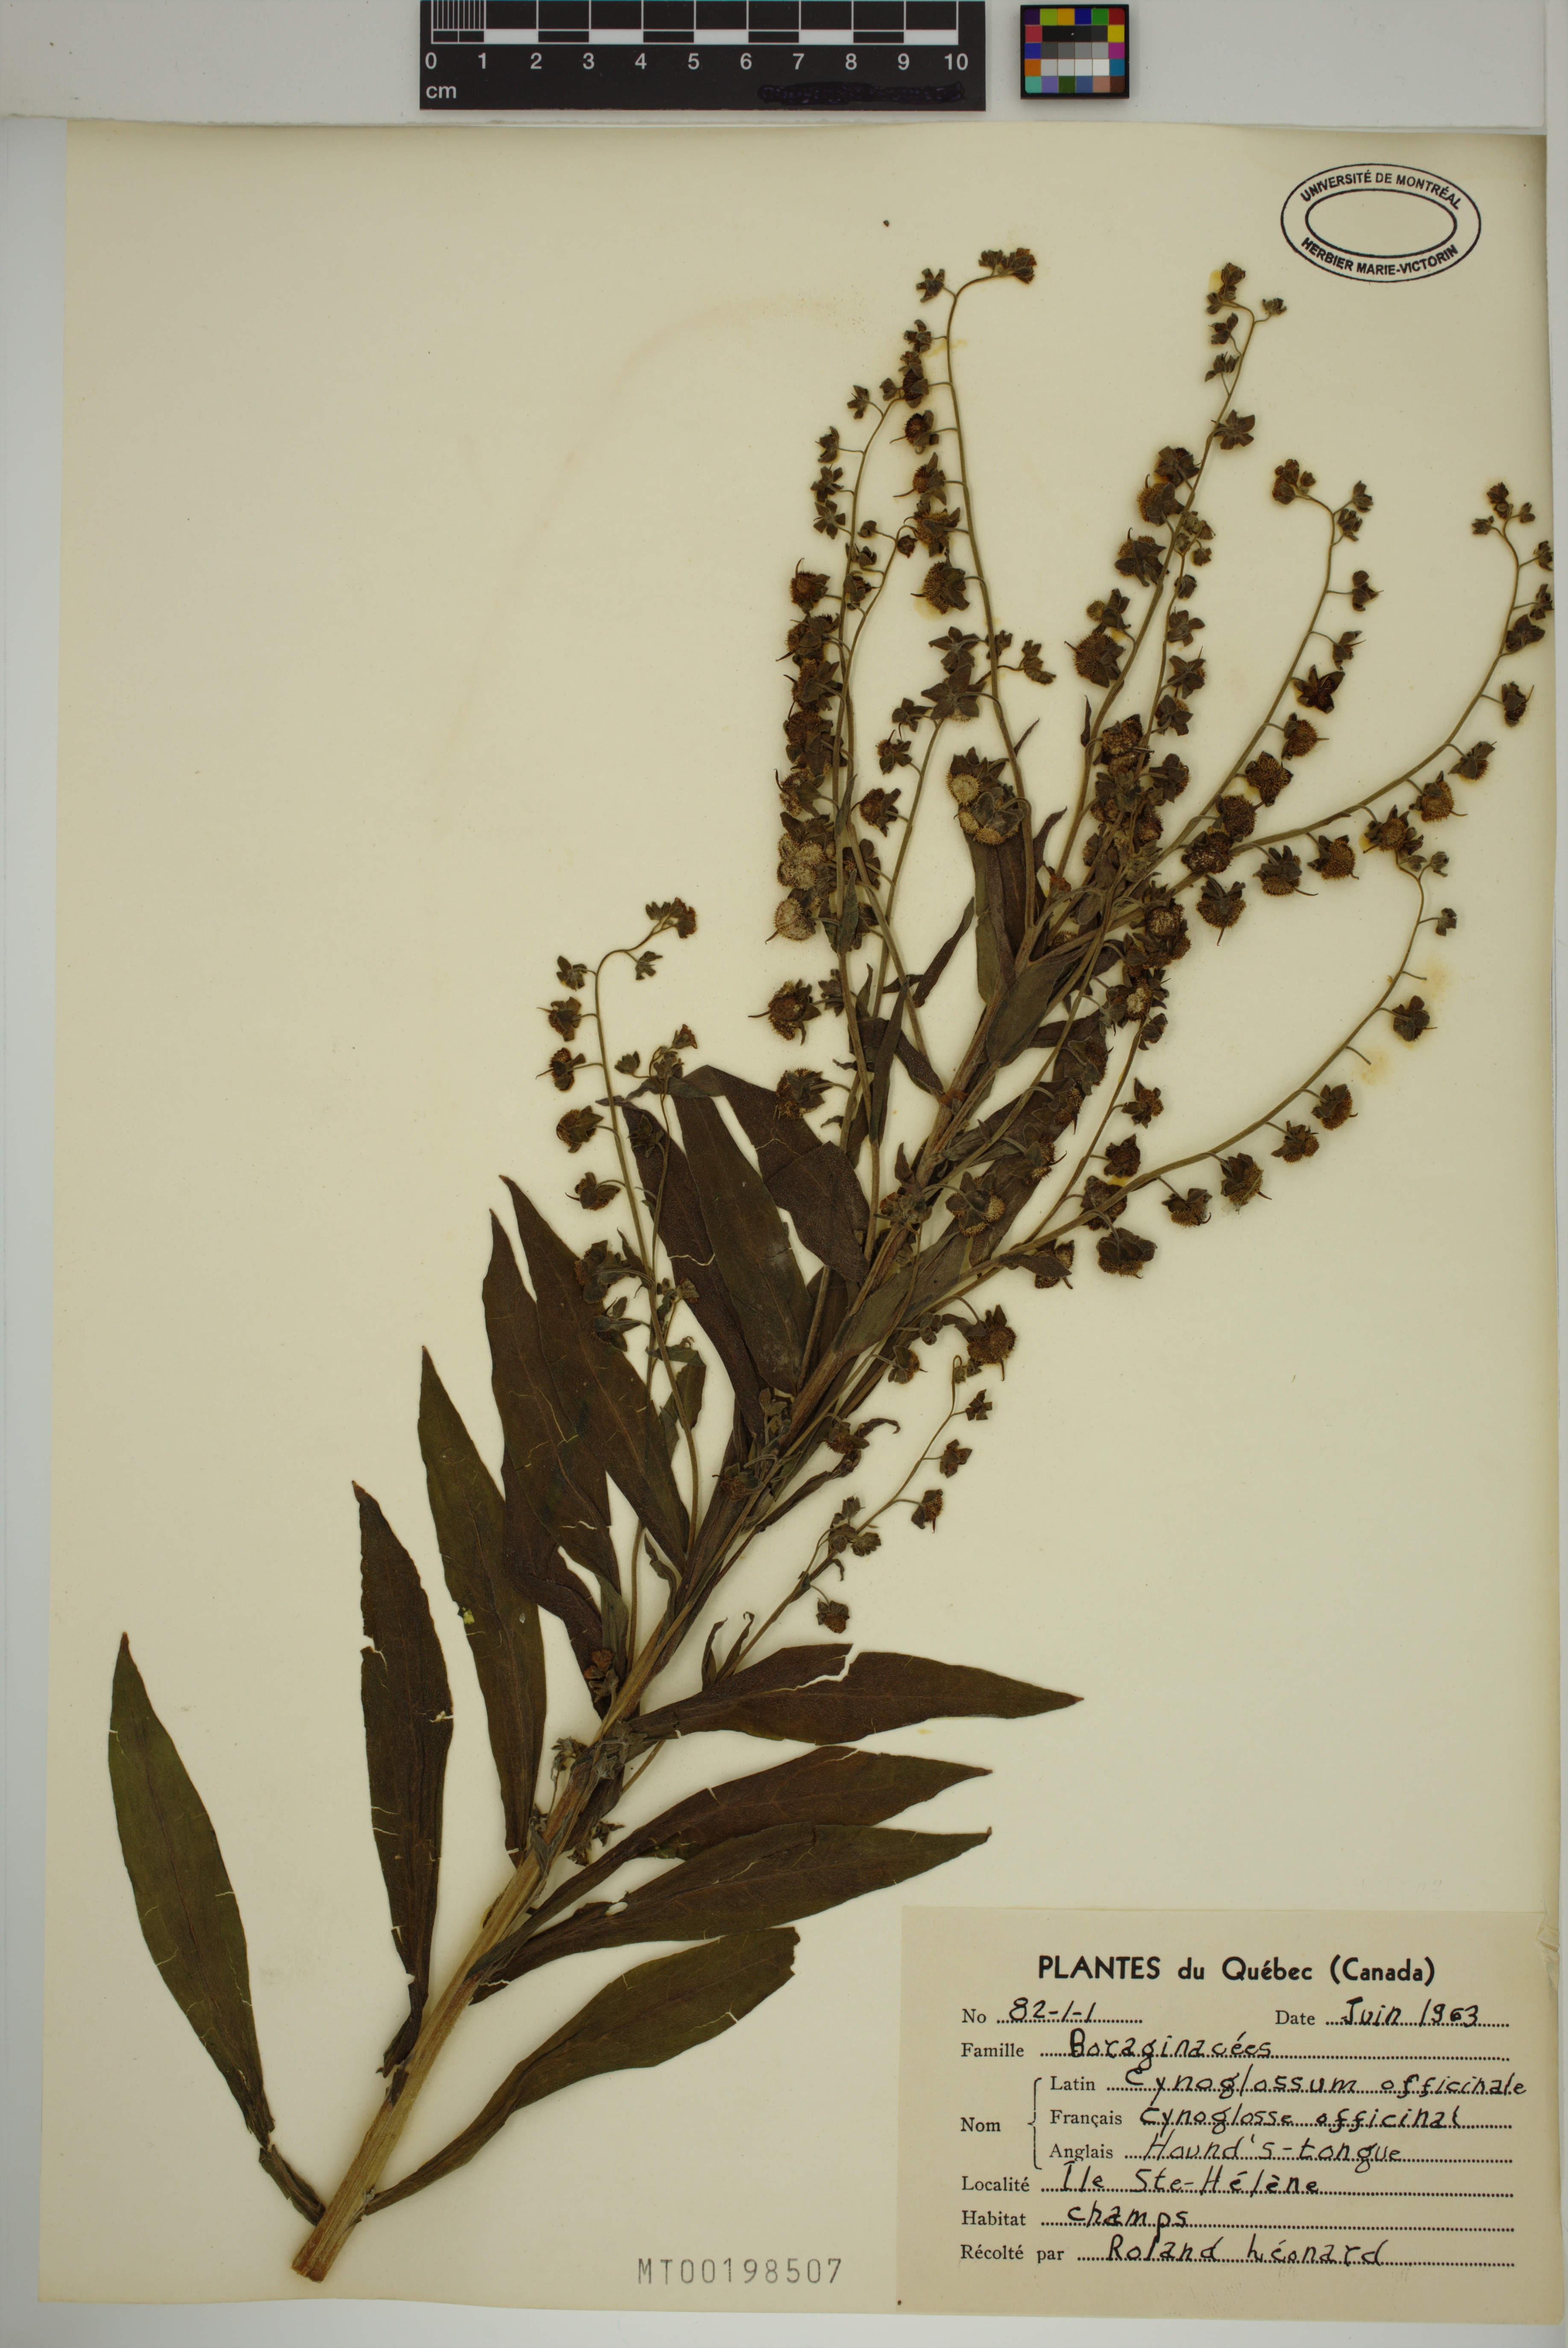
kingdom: Plantae
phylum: Tracheophyta
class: Magnoliopsida
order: Boraginales
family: Boraginaceae
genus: Cynoglossum
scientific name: Cynoglossum officinale
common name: Hound's-tongue
